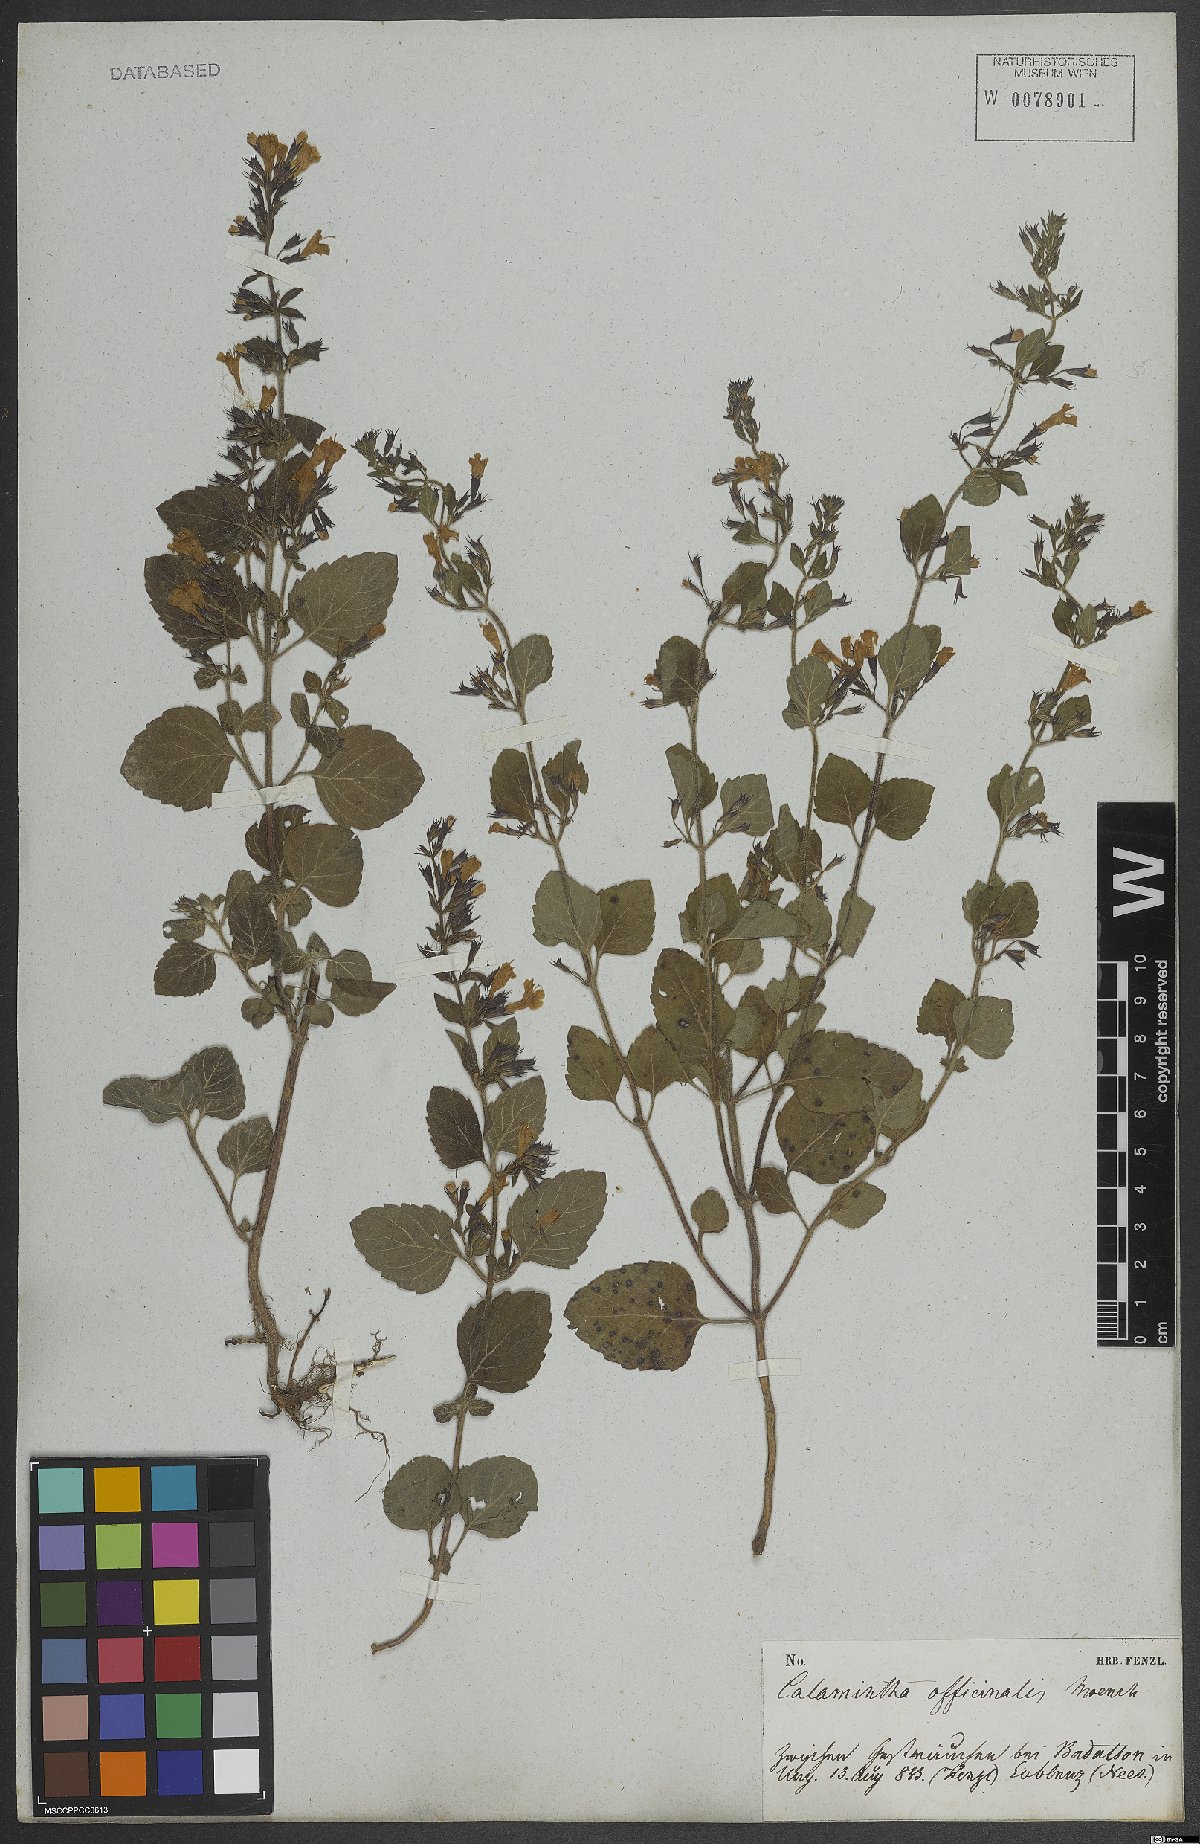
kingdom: Plantae
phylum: Tracheophyta
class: Magnoliopsida
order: Lamiales
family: Lamiaceae
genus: Clinopodium
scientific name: Clinopodium nepeta
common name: Lesser calamint
